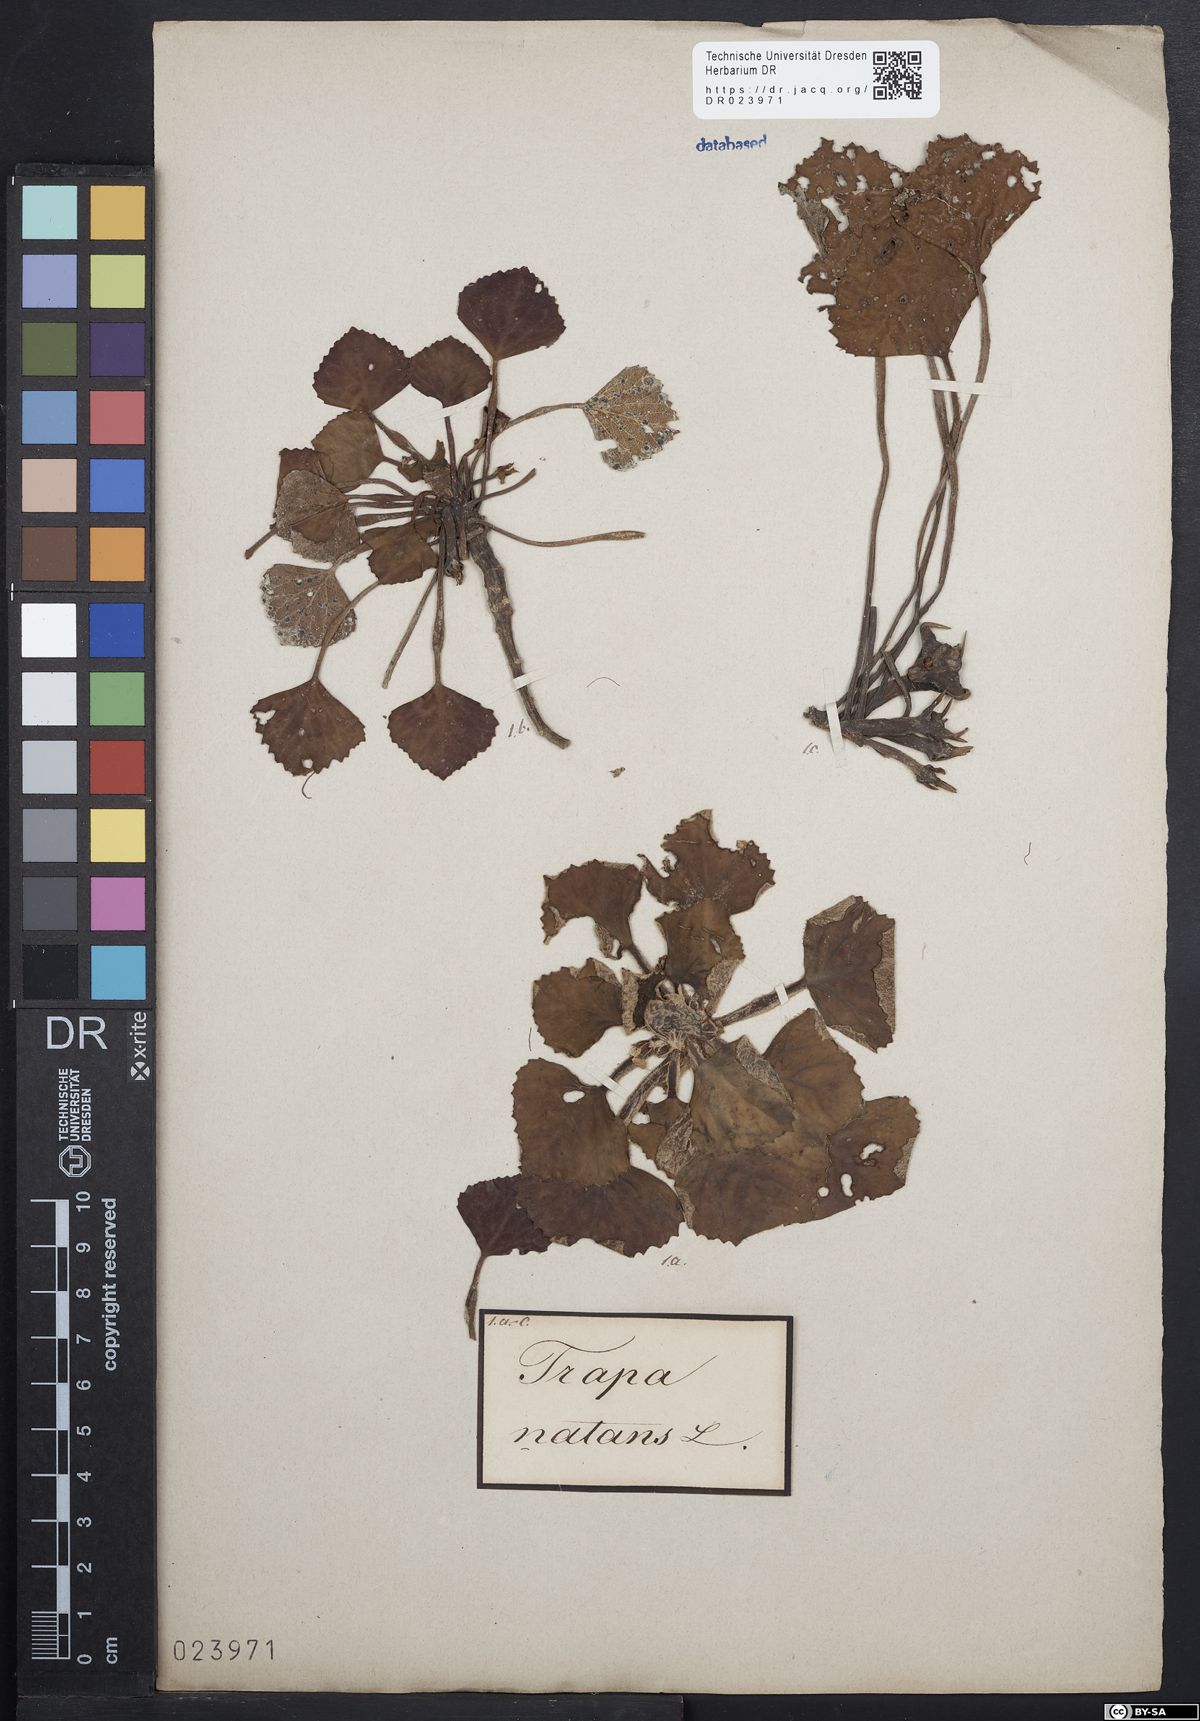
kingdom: Plantae
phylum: Tracheophyta
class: Magnoliopsida
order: Myrtales
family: Lythraceae
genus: Trapa
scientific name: Trapa natans
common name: Water chestnut
